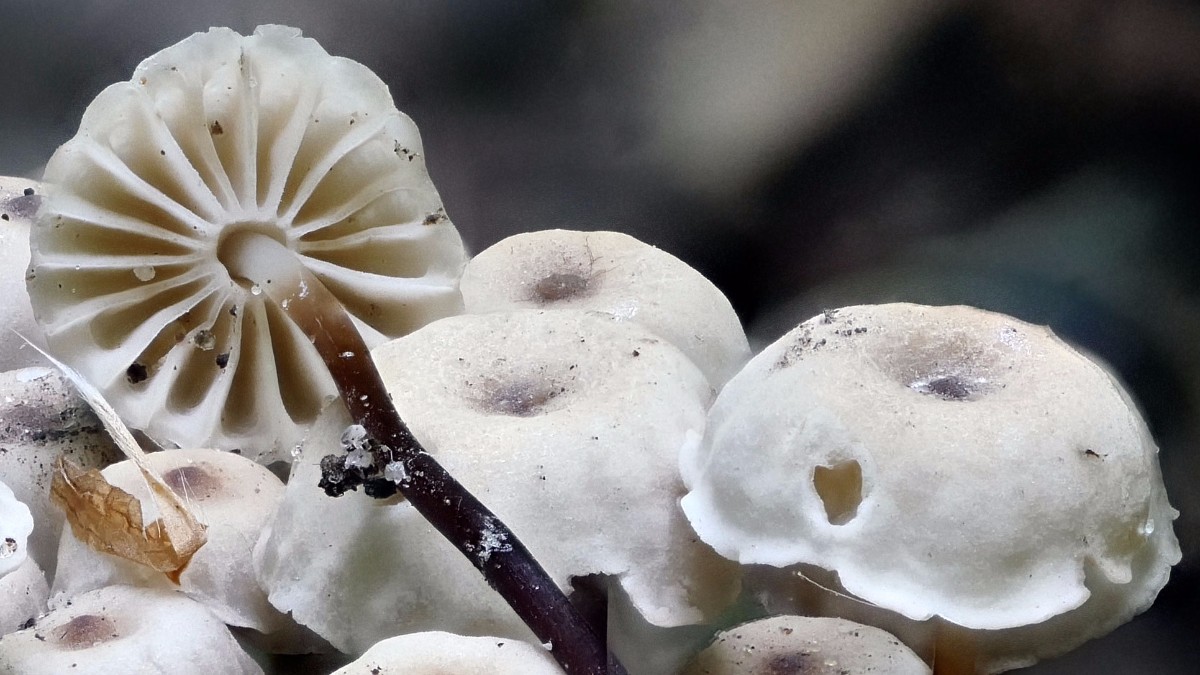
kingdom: Fungi
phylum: Basidiomycota
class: Agaricomycetes
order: Agaricales
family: Marasmiaceae
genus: Marasmius
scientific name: Marasmius rotula
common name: hjul-bruskhat
